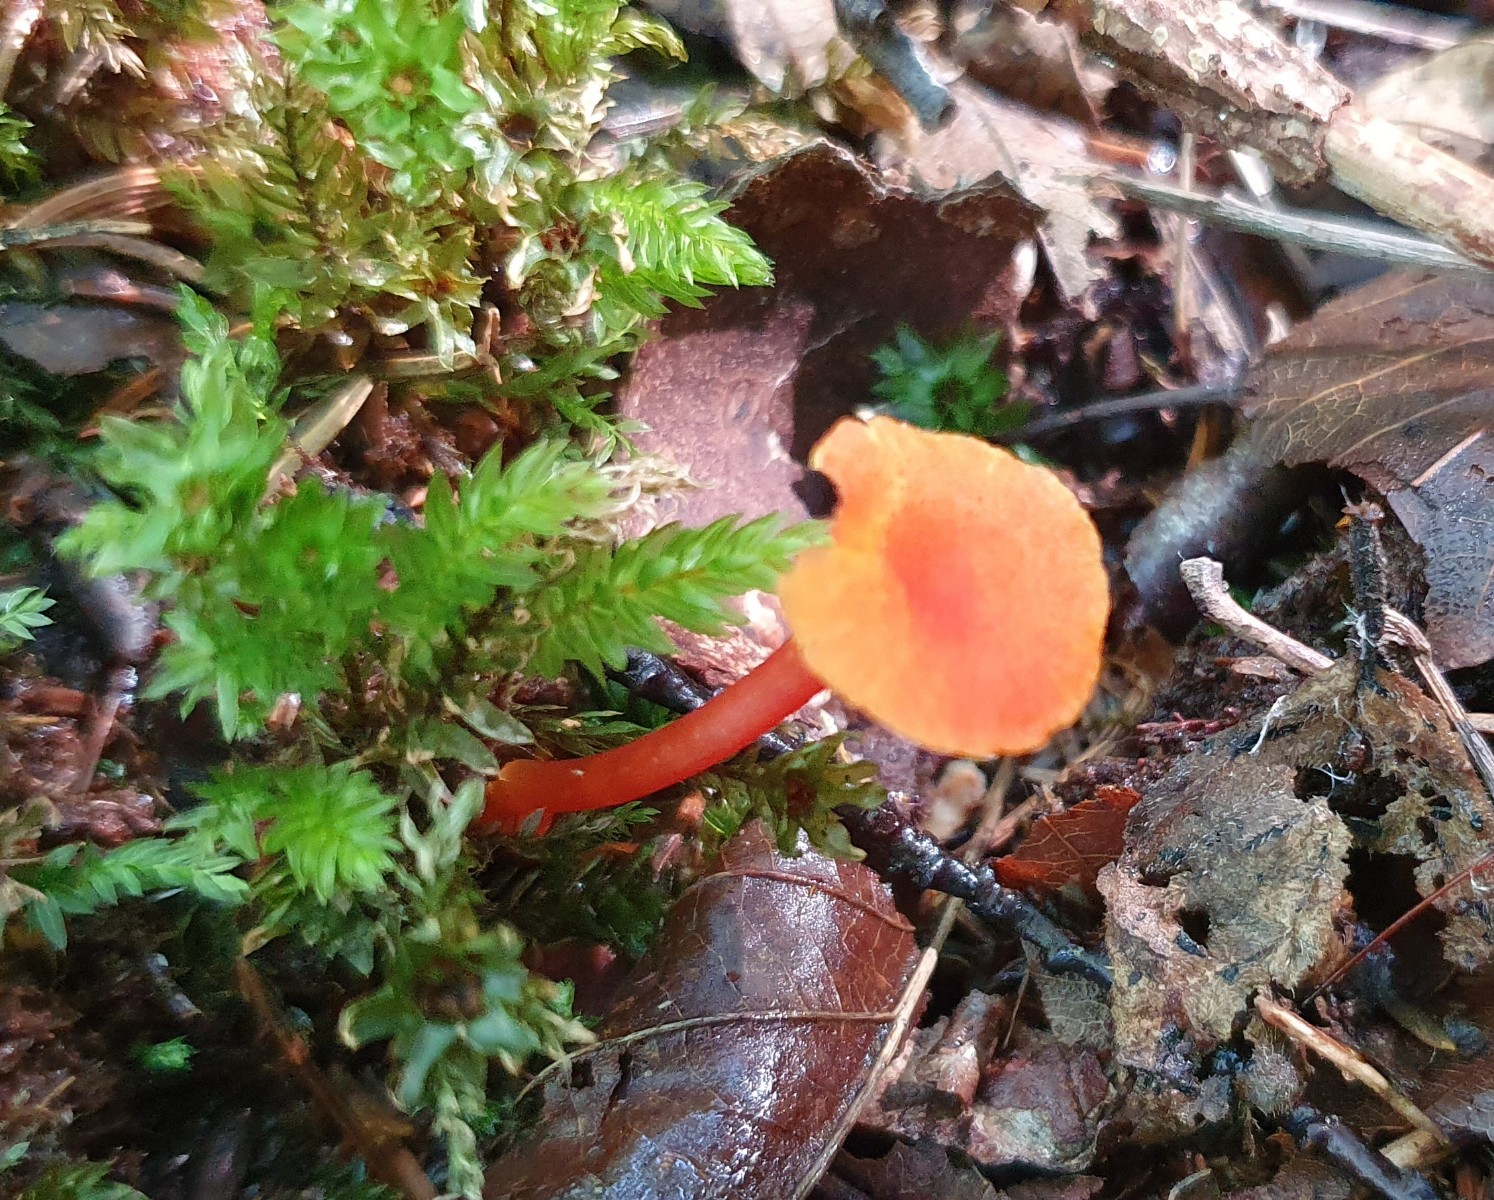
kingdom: Fungi
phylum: Basidiomycota
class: Agaricomycetes
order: Agaricales
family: Hygrophoraceae
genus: Hygrocybe
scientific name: Hygrocybe cantharellus
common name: kantarel-vokshat
